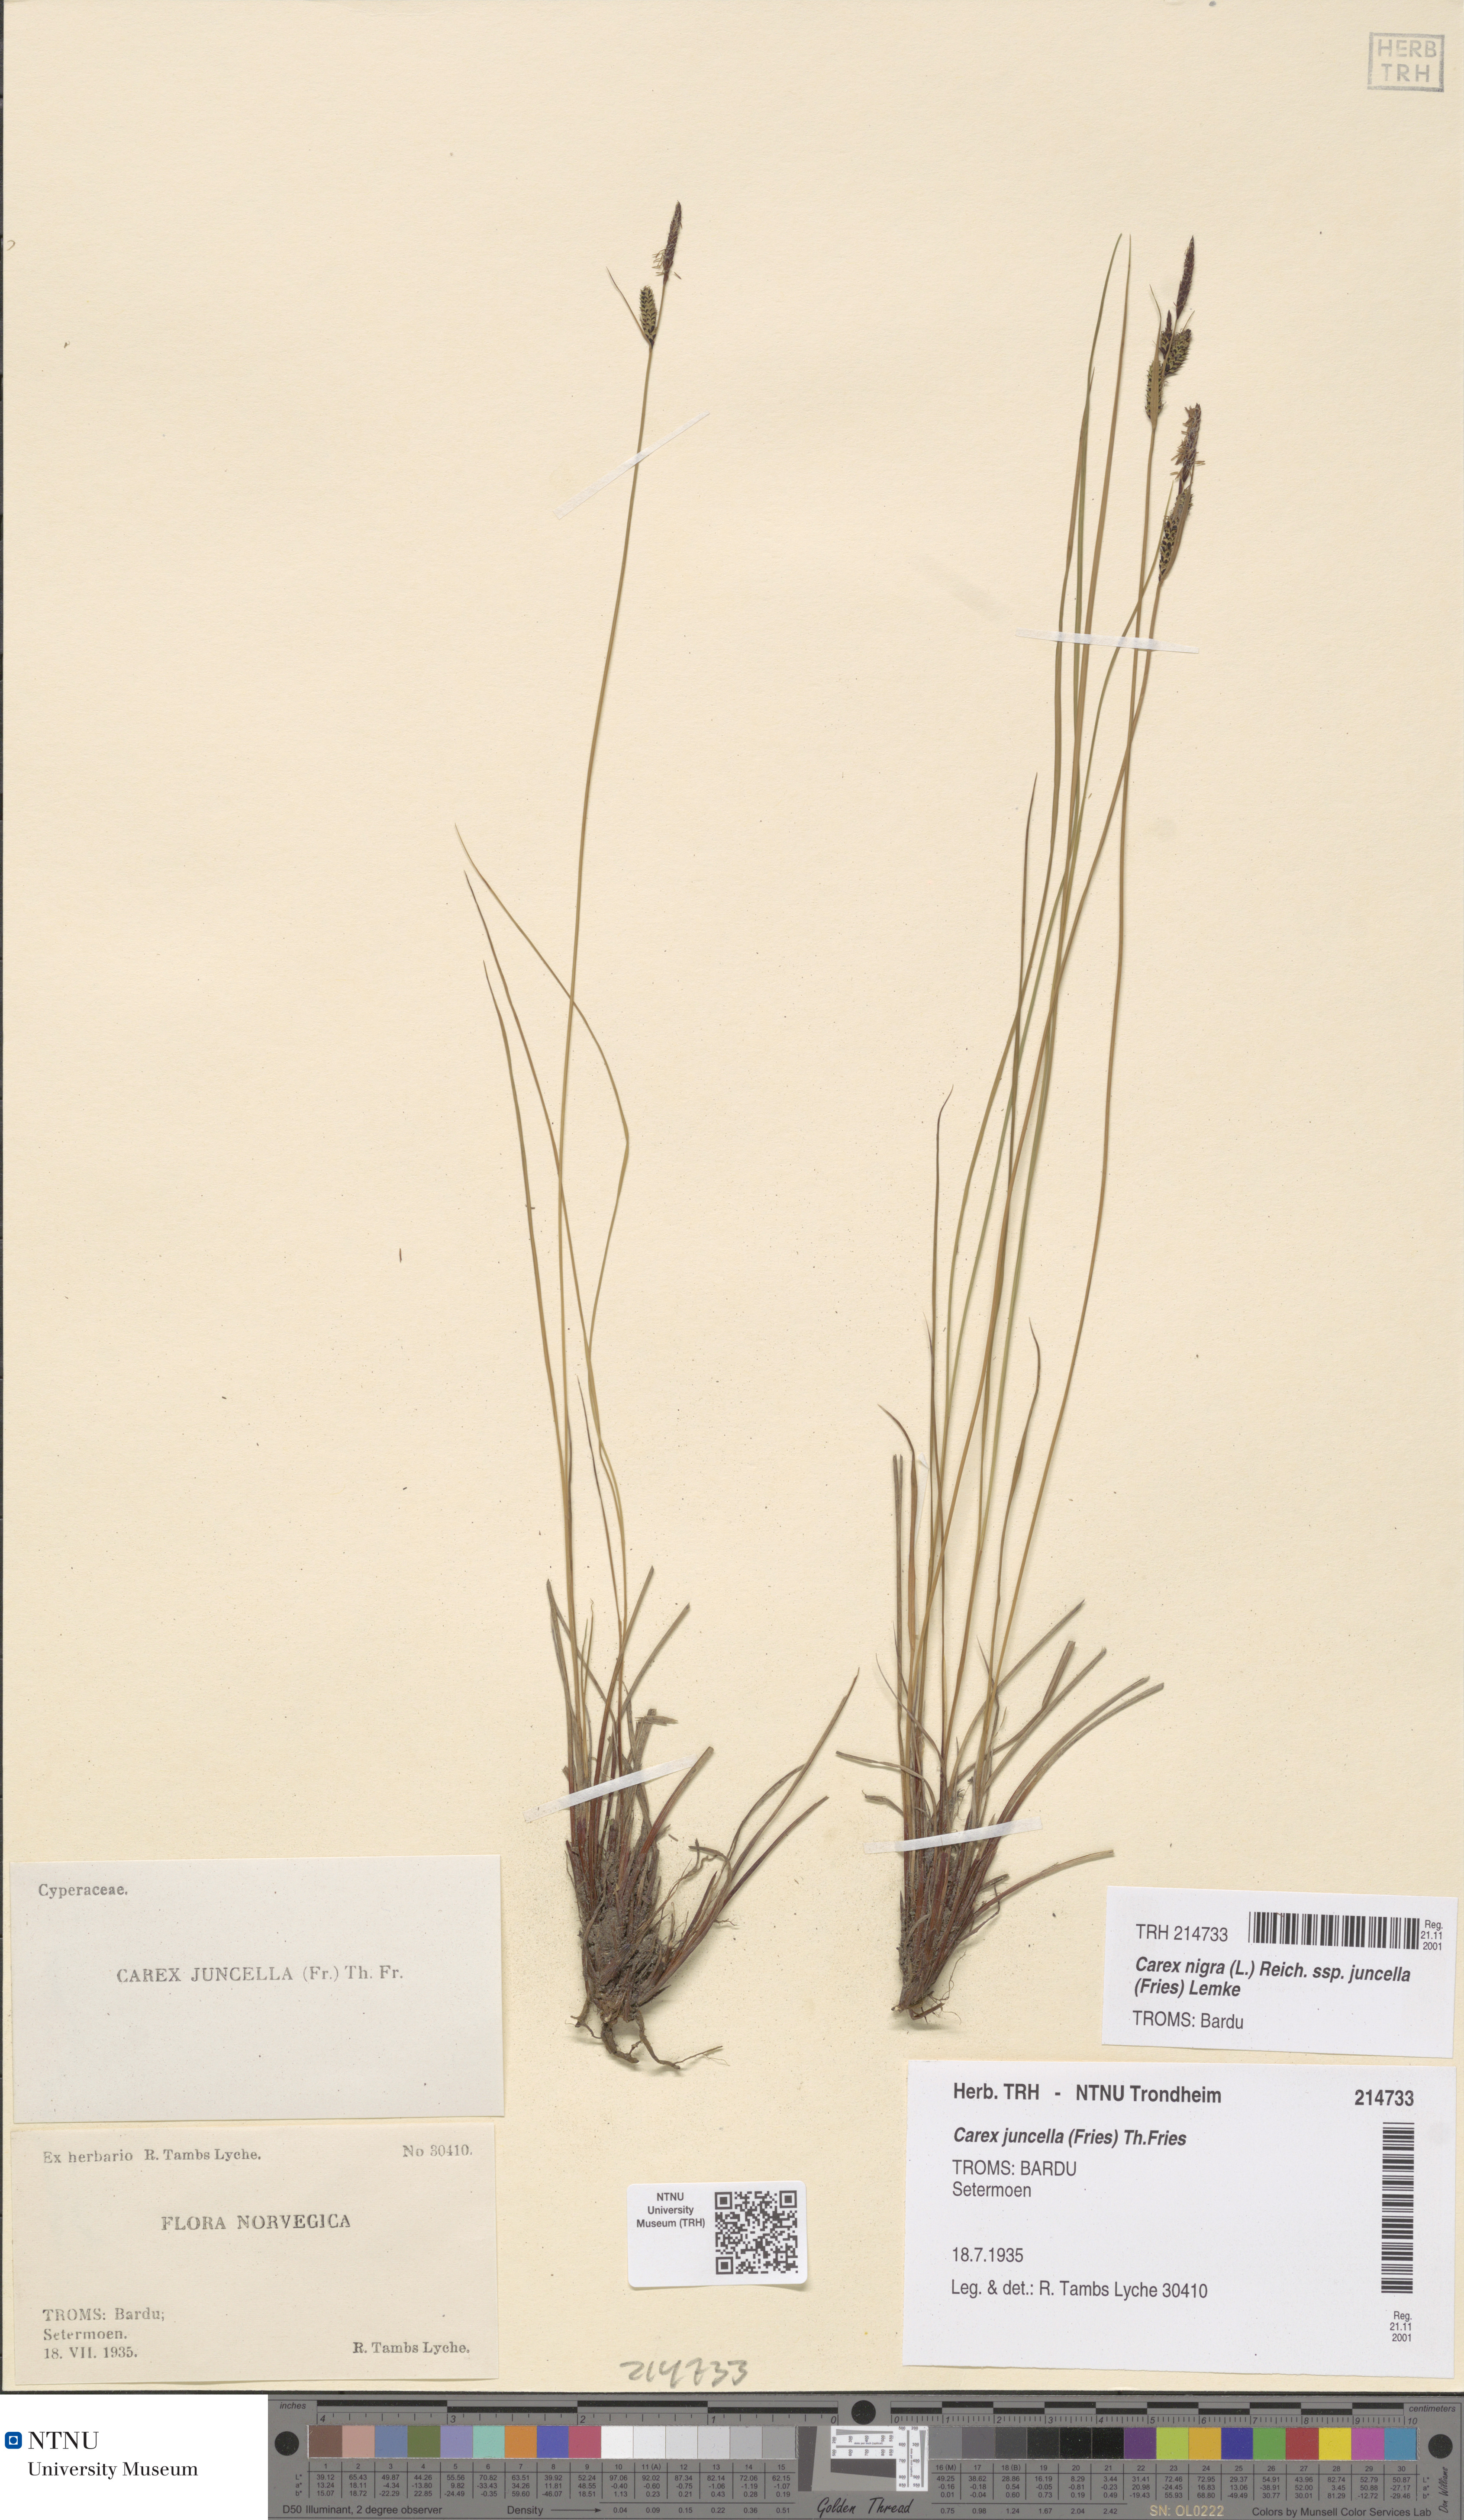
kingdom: Plantae
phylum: Tracheophyta
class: Liliopsida
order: Poales
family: Cyperaceae
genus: Carex
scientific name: Carex nigra
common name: Common sedge
